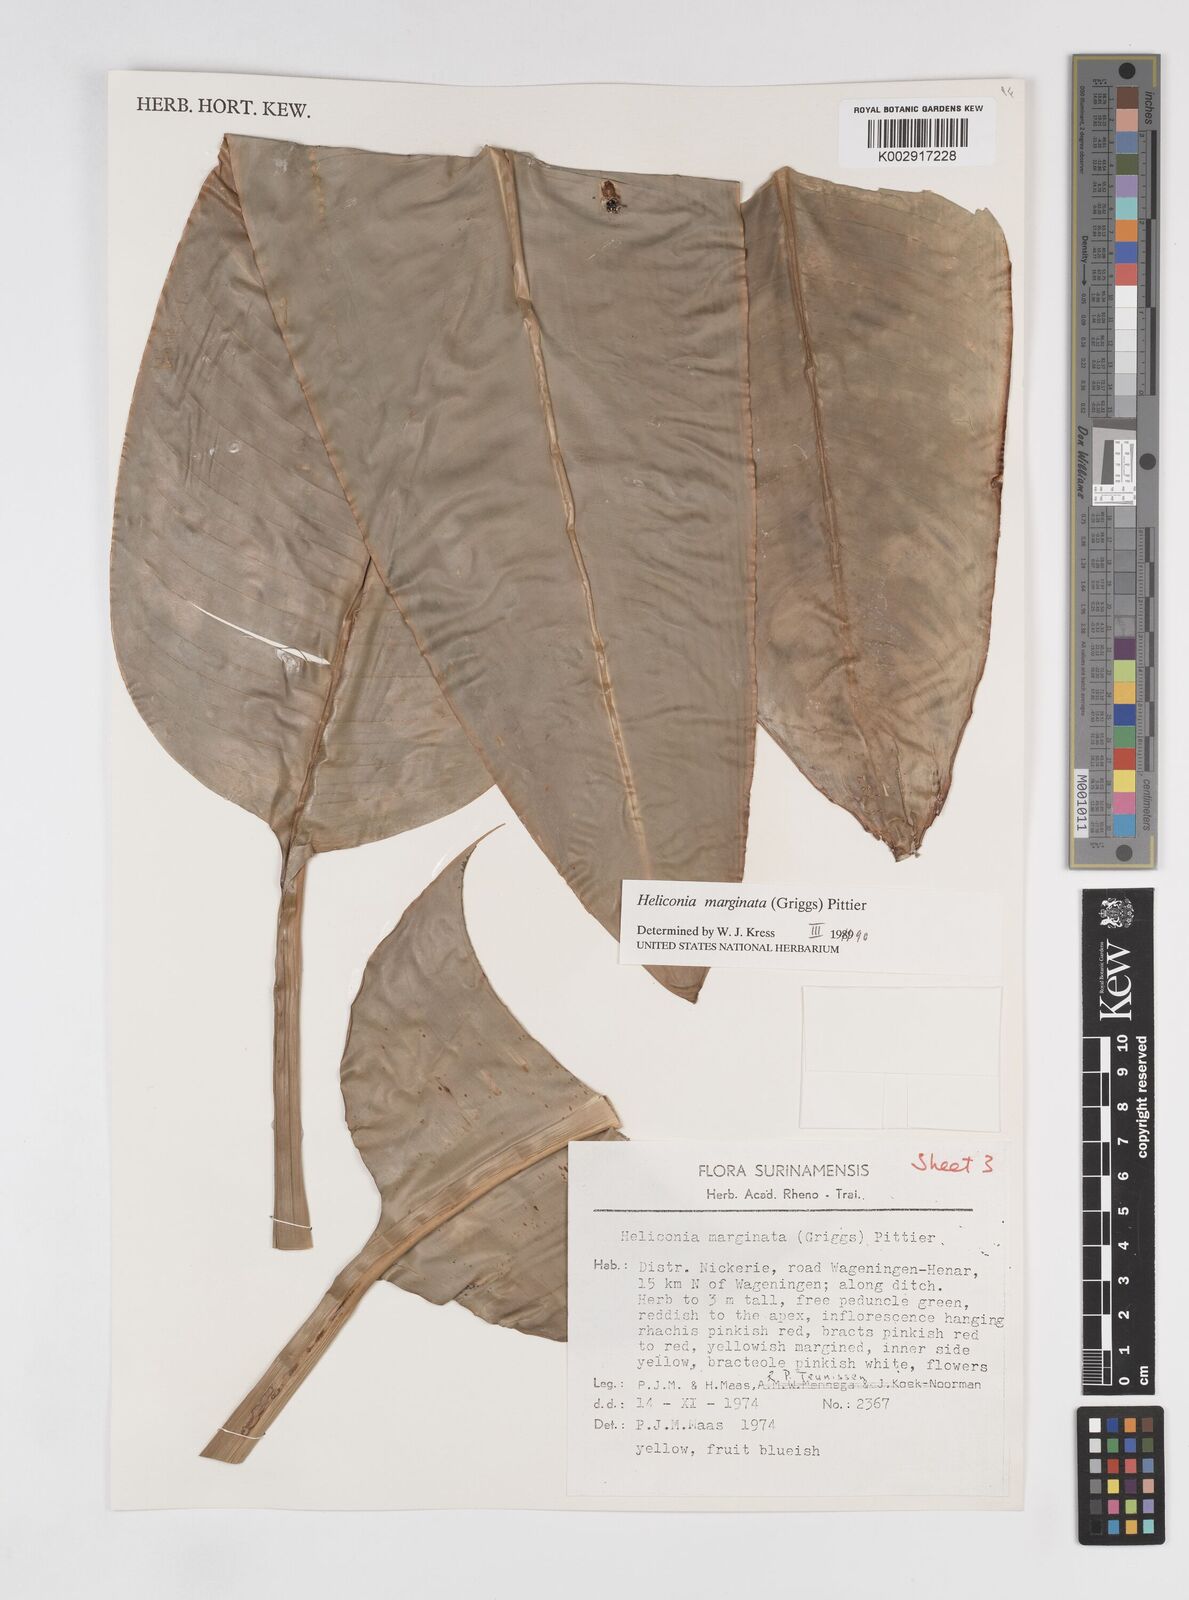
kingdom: Plantae
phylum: Tracheophyta
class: Liliopsida
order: Zingiberales
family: Heliconiaceae
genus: Heliconia
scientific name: Heliconia marginata
